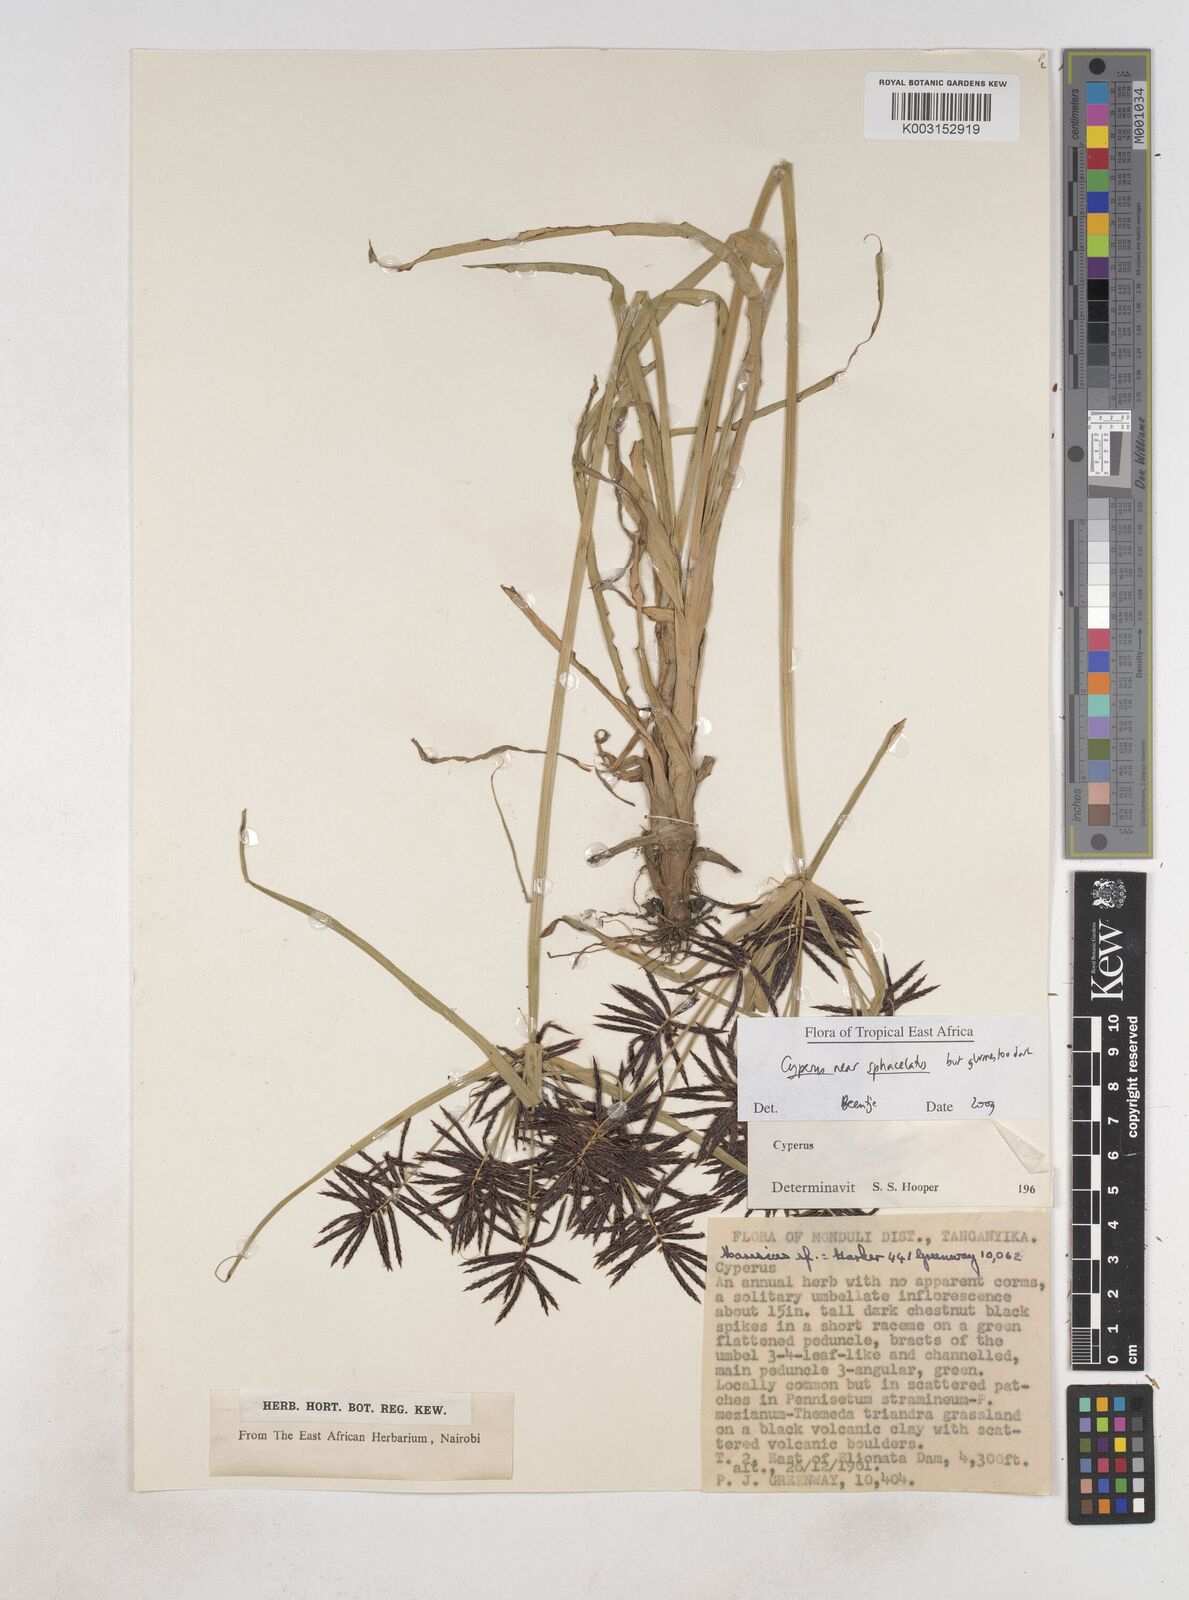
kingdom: Plantae
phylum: Tracheophyta
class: Liliopsida
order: Poales
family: Cyperaceae
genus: Cyperus
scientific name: Cyperus sphacelatus
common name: Roadside flatsedge
